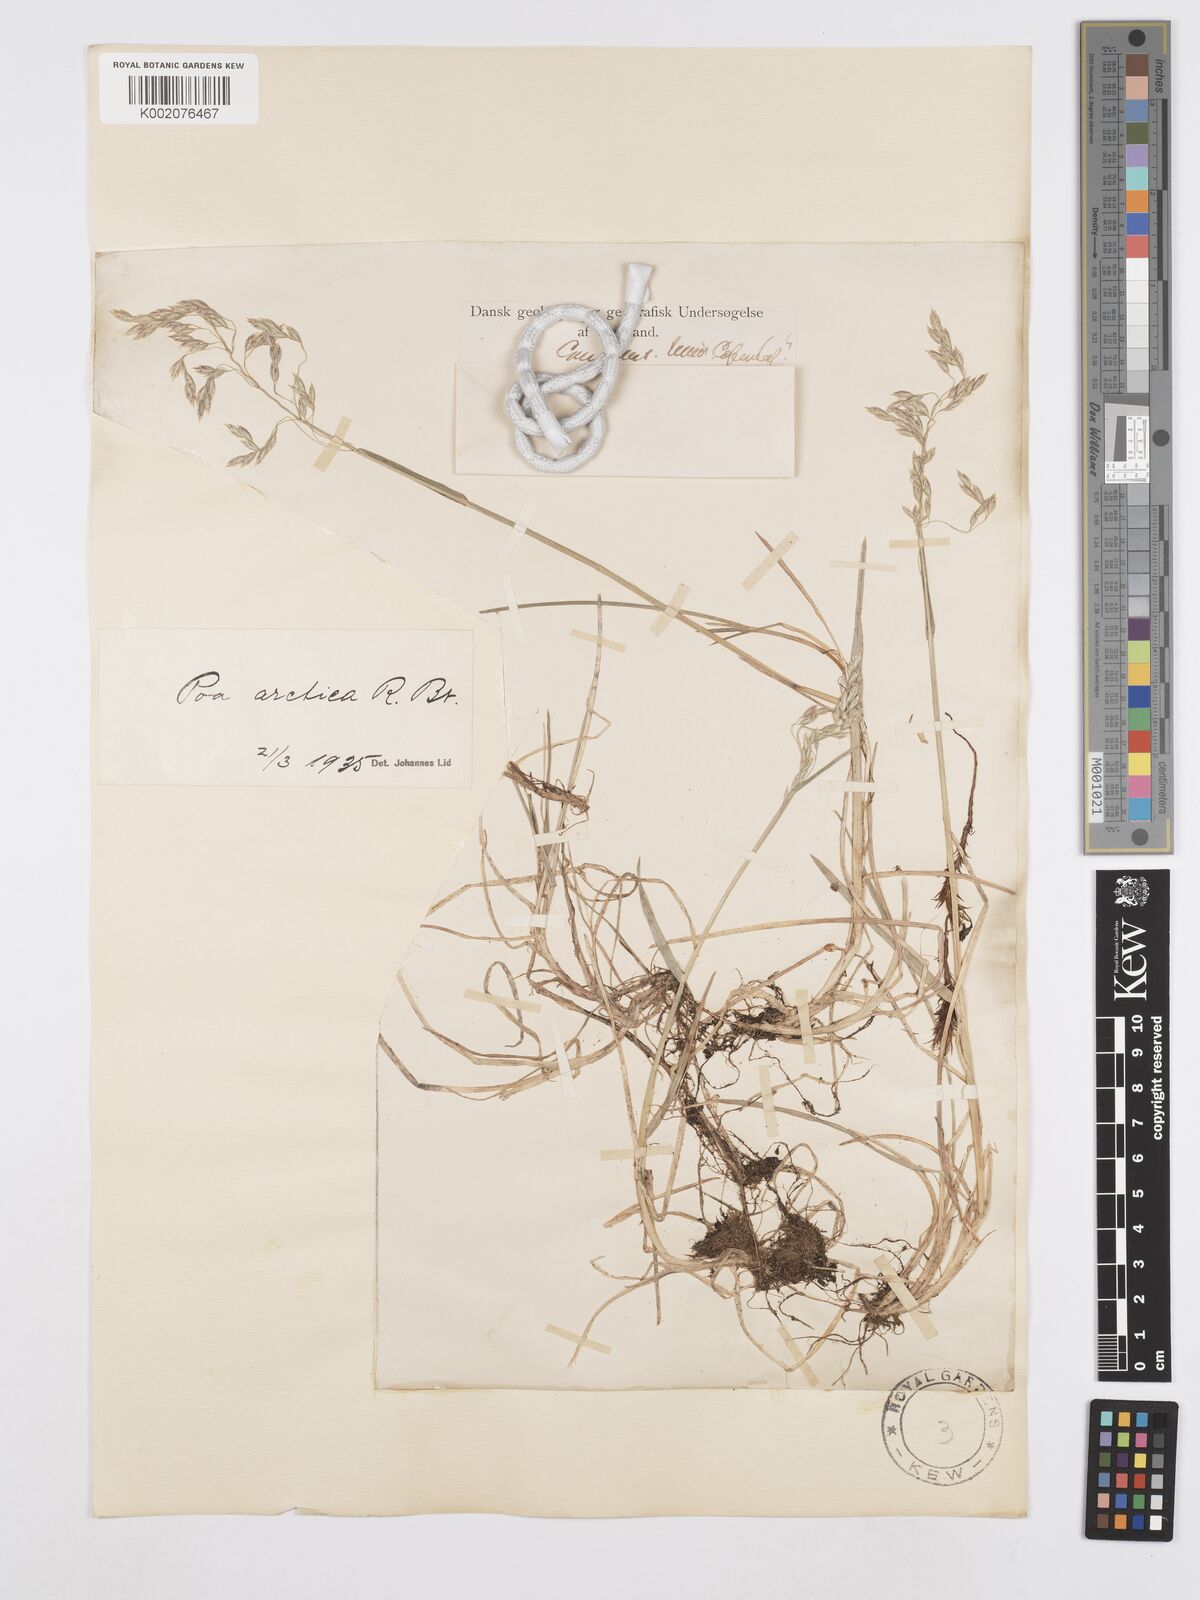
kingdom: Plantae
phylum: Tracheophyta
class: Liliopsida
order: Poales
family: Poaceae
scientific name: Poaceae
